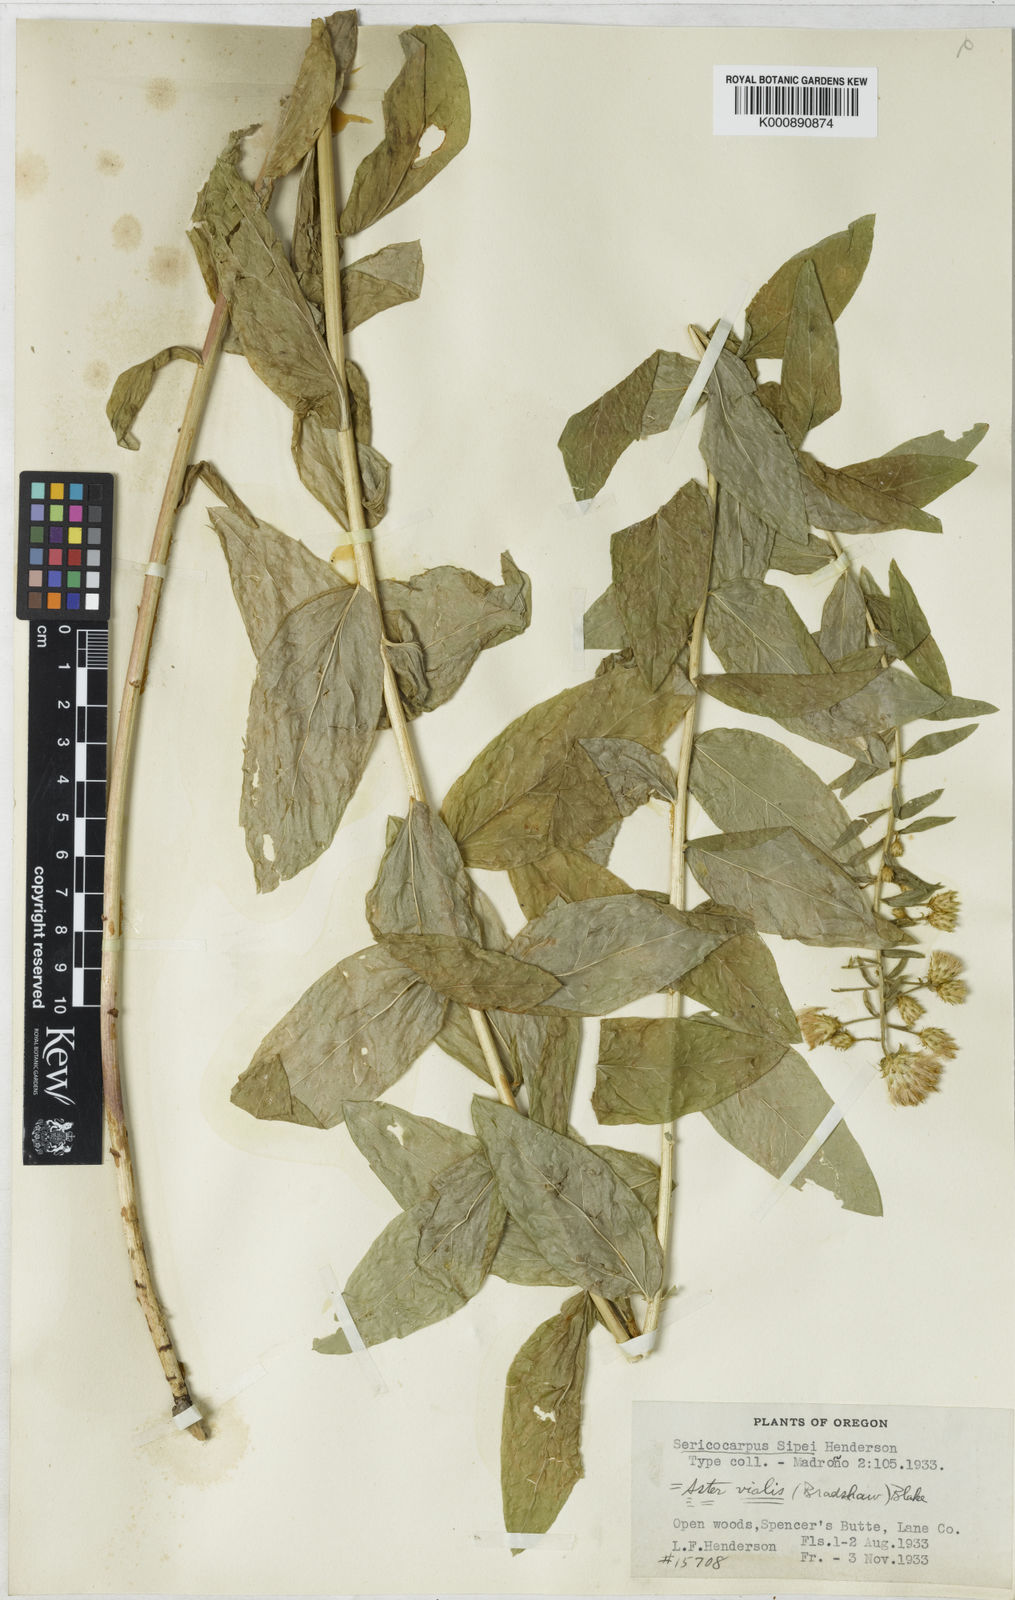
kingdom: Plantae
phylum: Tracheophyta
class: Magnoliopsida
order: Asterales
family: Asteraceae
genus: Eucephalus
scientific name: Eucephalus vialis
